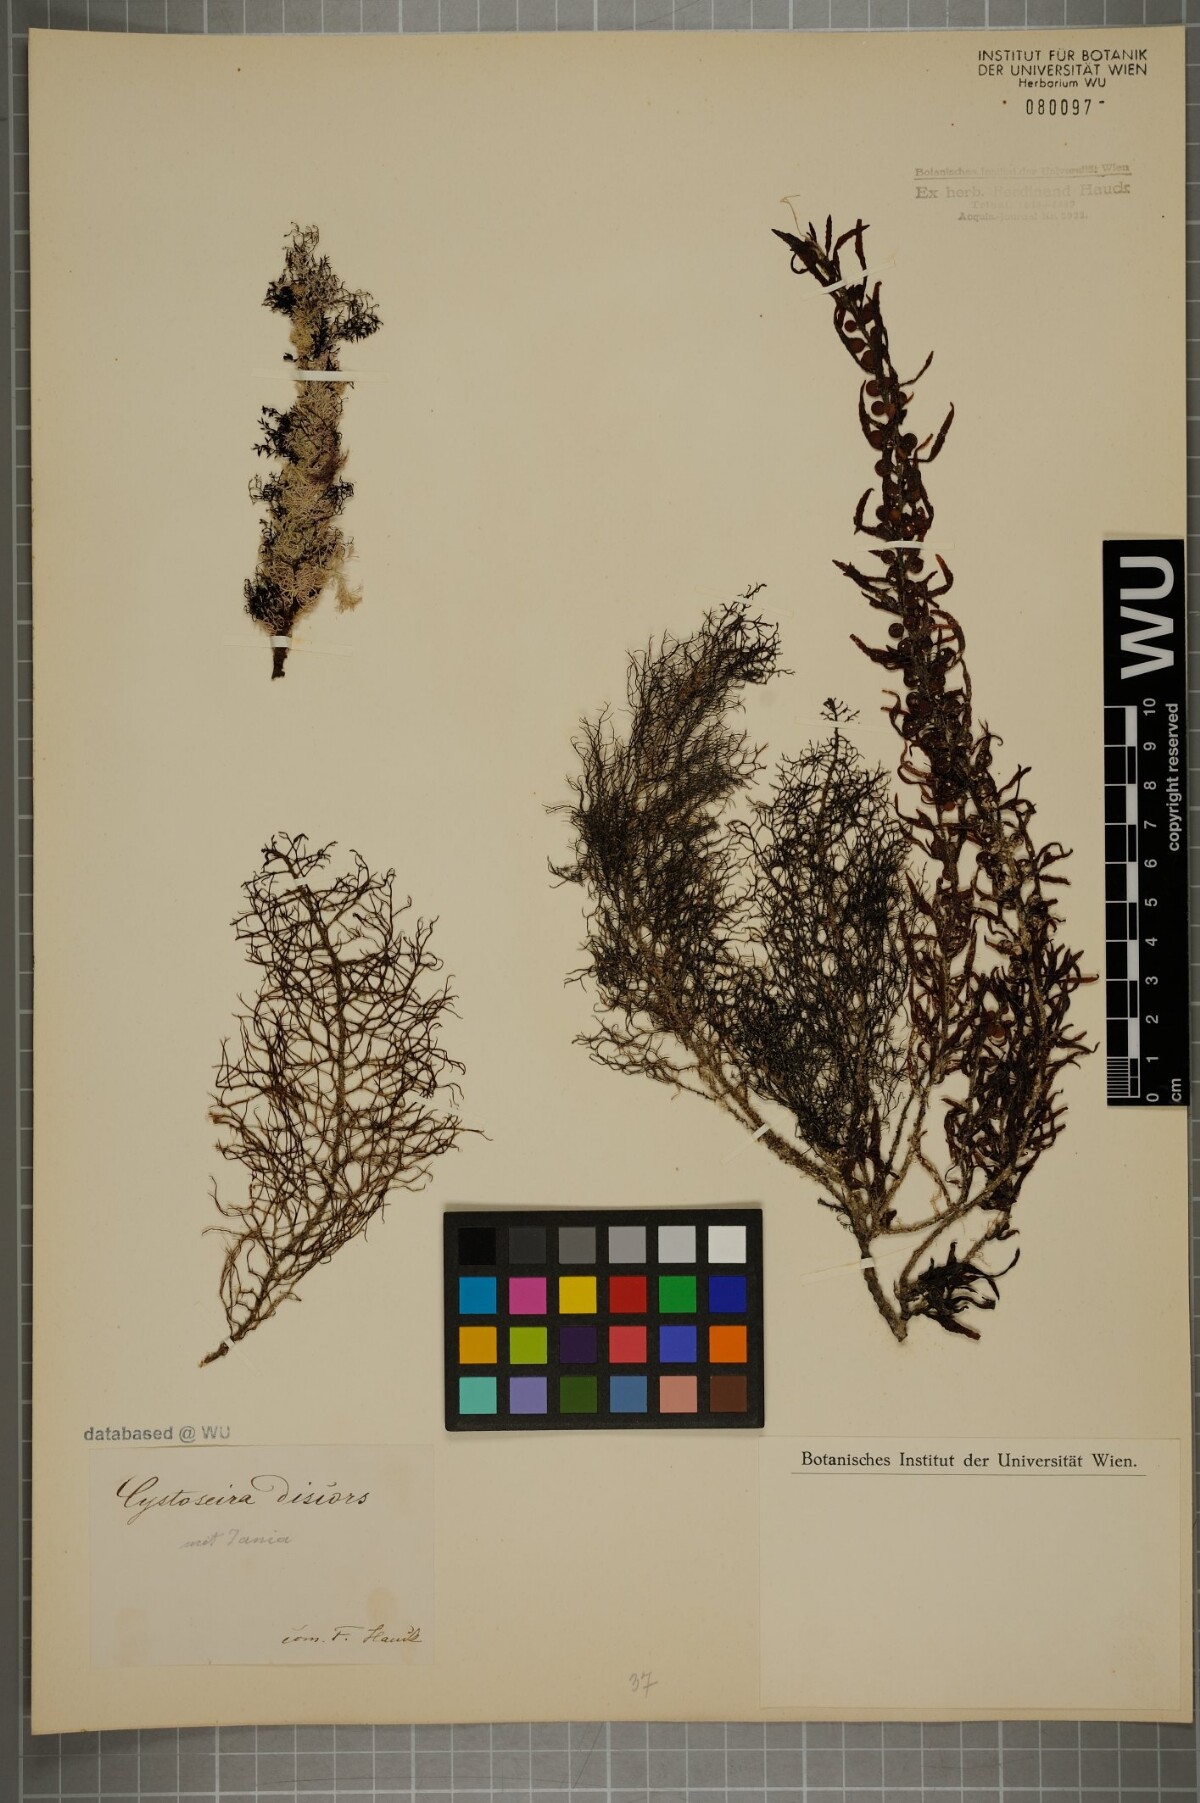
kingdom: Chromista
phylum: Ochrophyta
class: Phaeophyceae
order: Fucales
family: Sargassaceae
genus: Cystoseira
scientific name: Cystoseira foeniculacea
